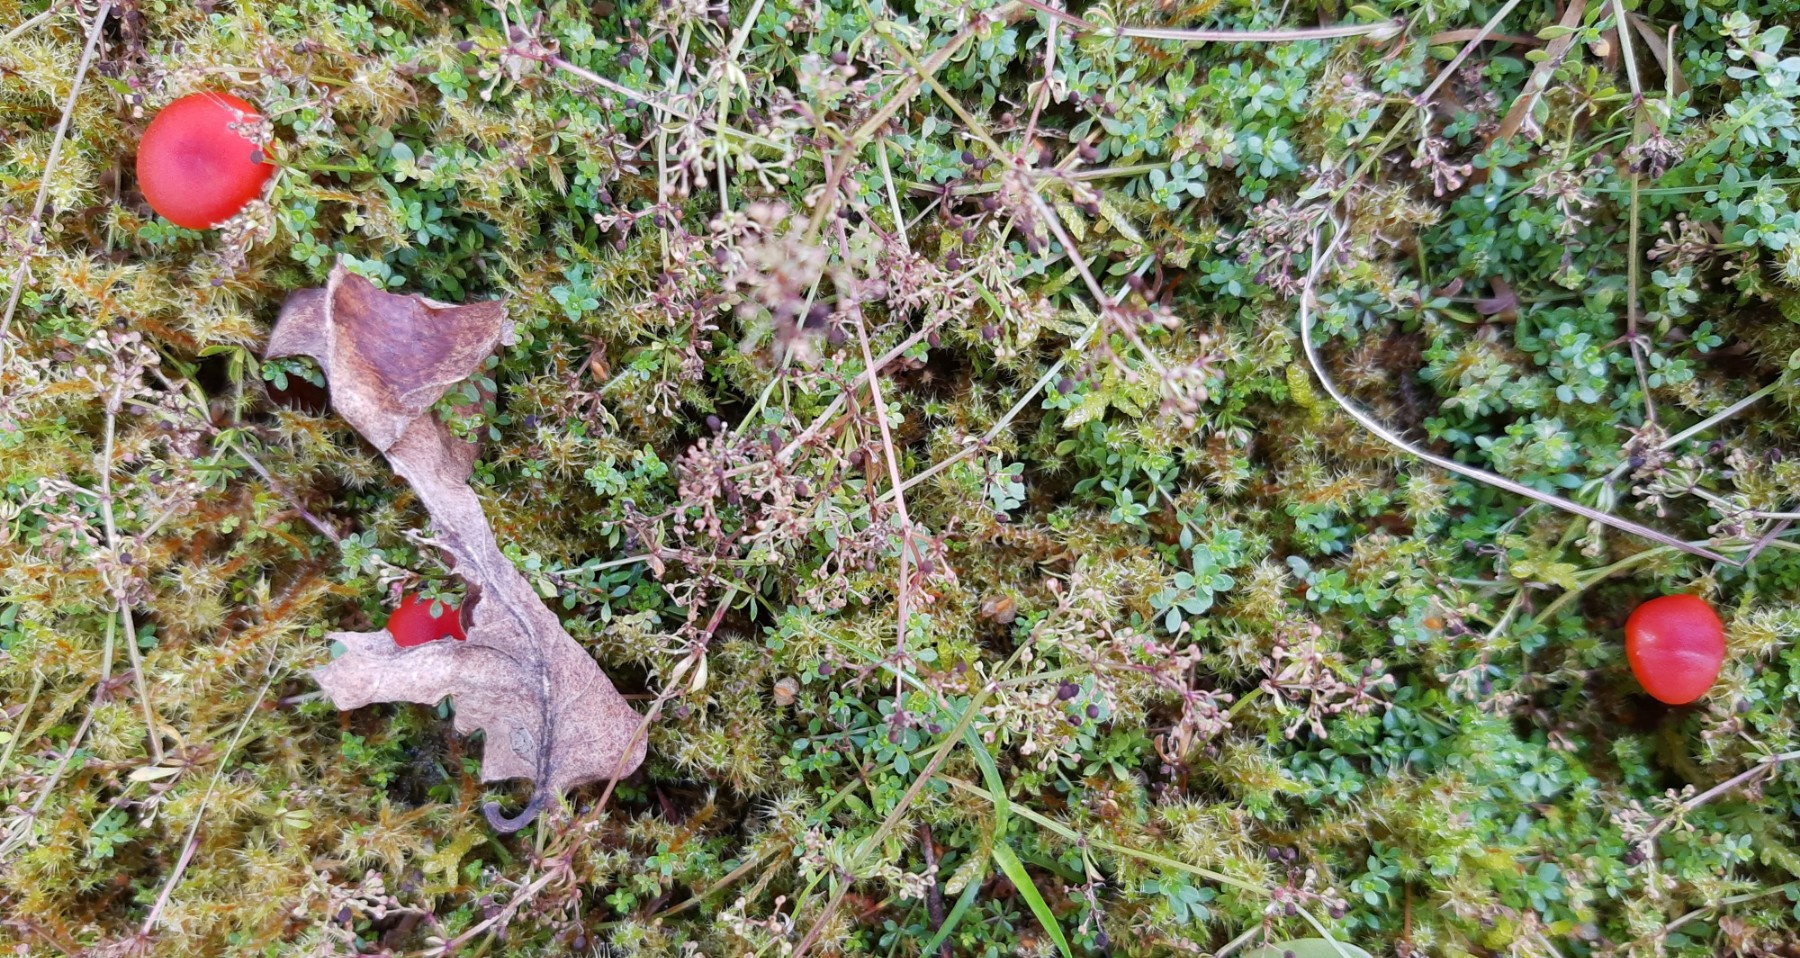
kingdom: Fungi
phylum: Basidiomycota
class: Agaricomycetes
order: Agaricales
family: Hygrophoraceae
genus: Hygrocybe
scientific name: Hygrocybe miniata
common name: mønje-vokshat
